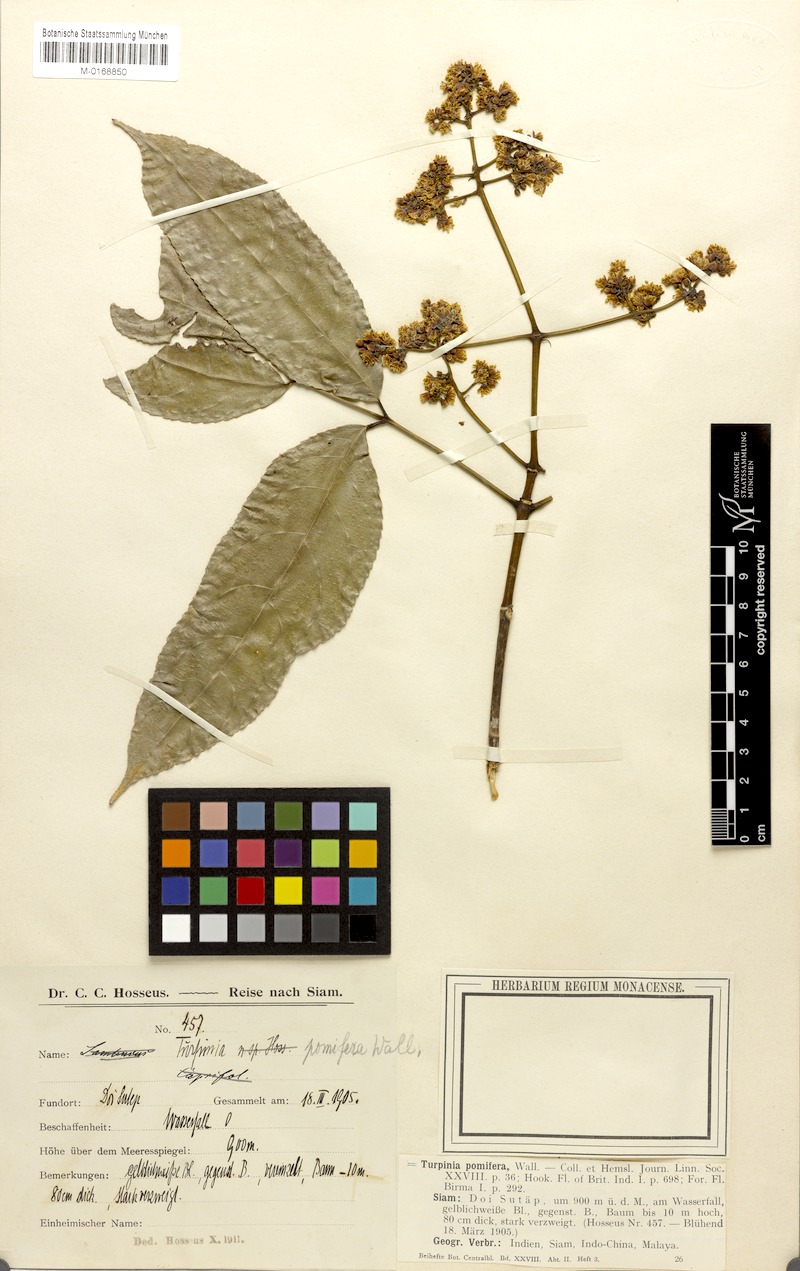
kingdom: Plantae
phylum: Tracheophyta
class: Magnoliopsida
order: Crossosomatales
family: Staphyleaceae
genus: Dalrympelea
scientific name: Dalrympelea pomifera
